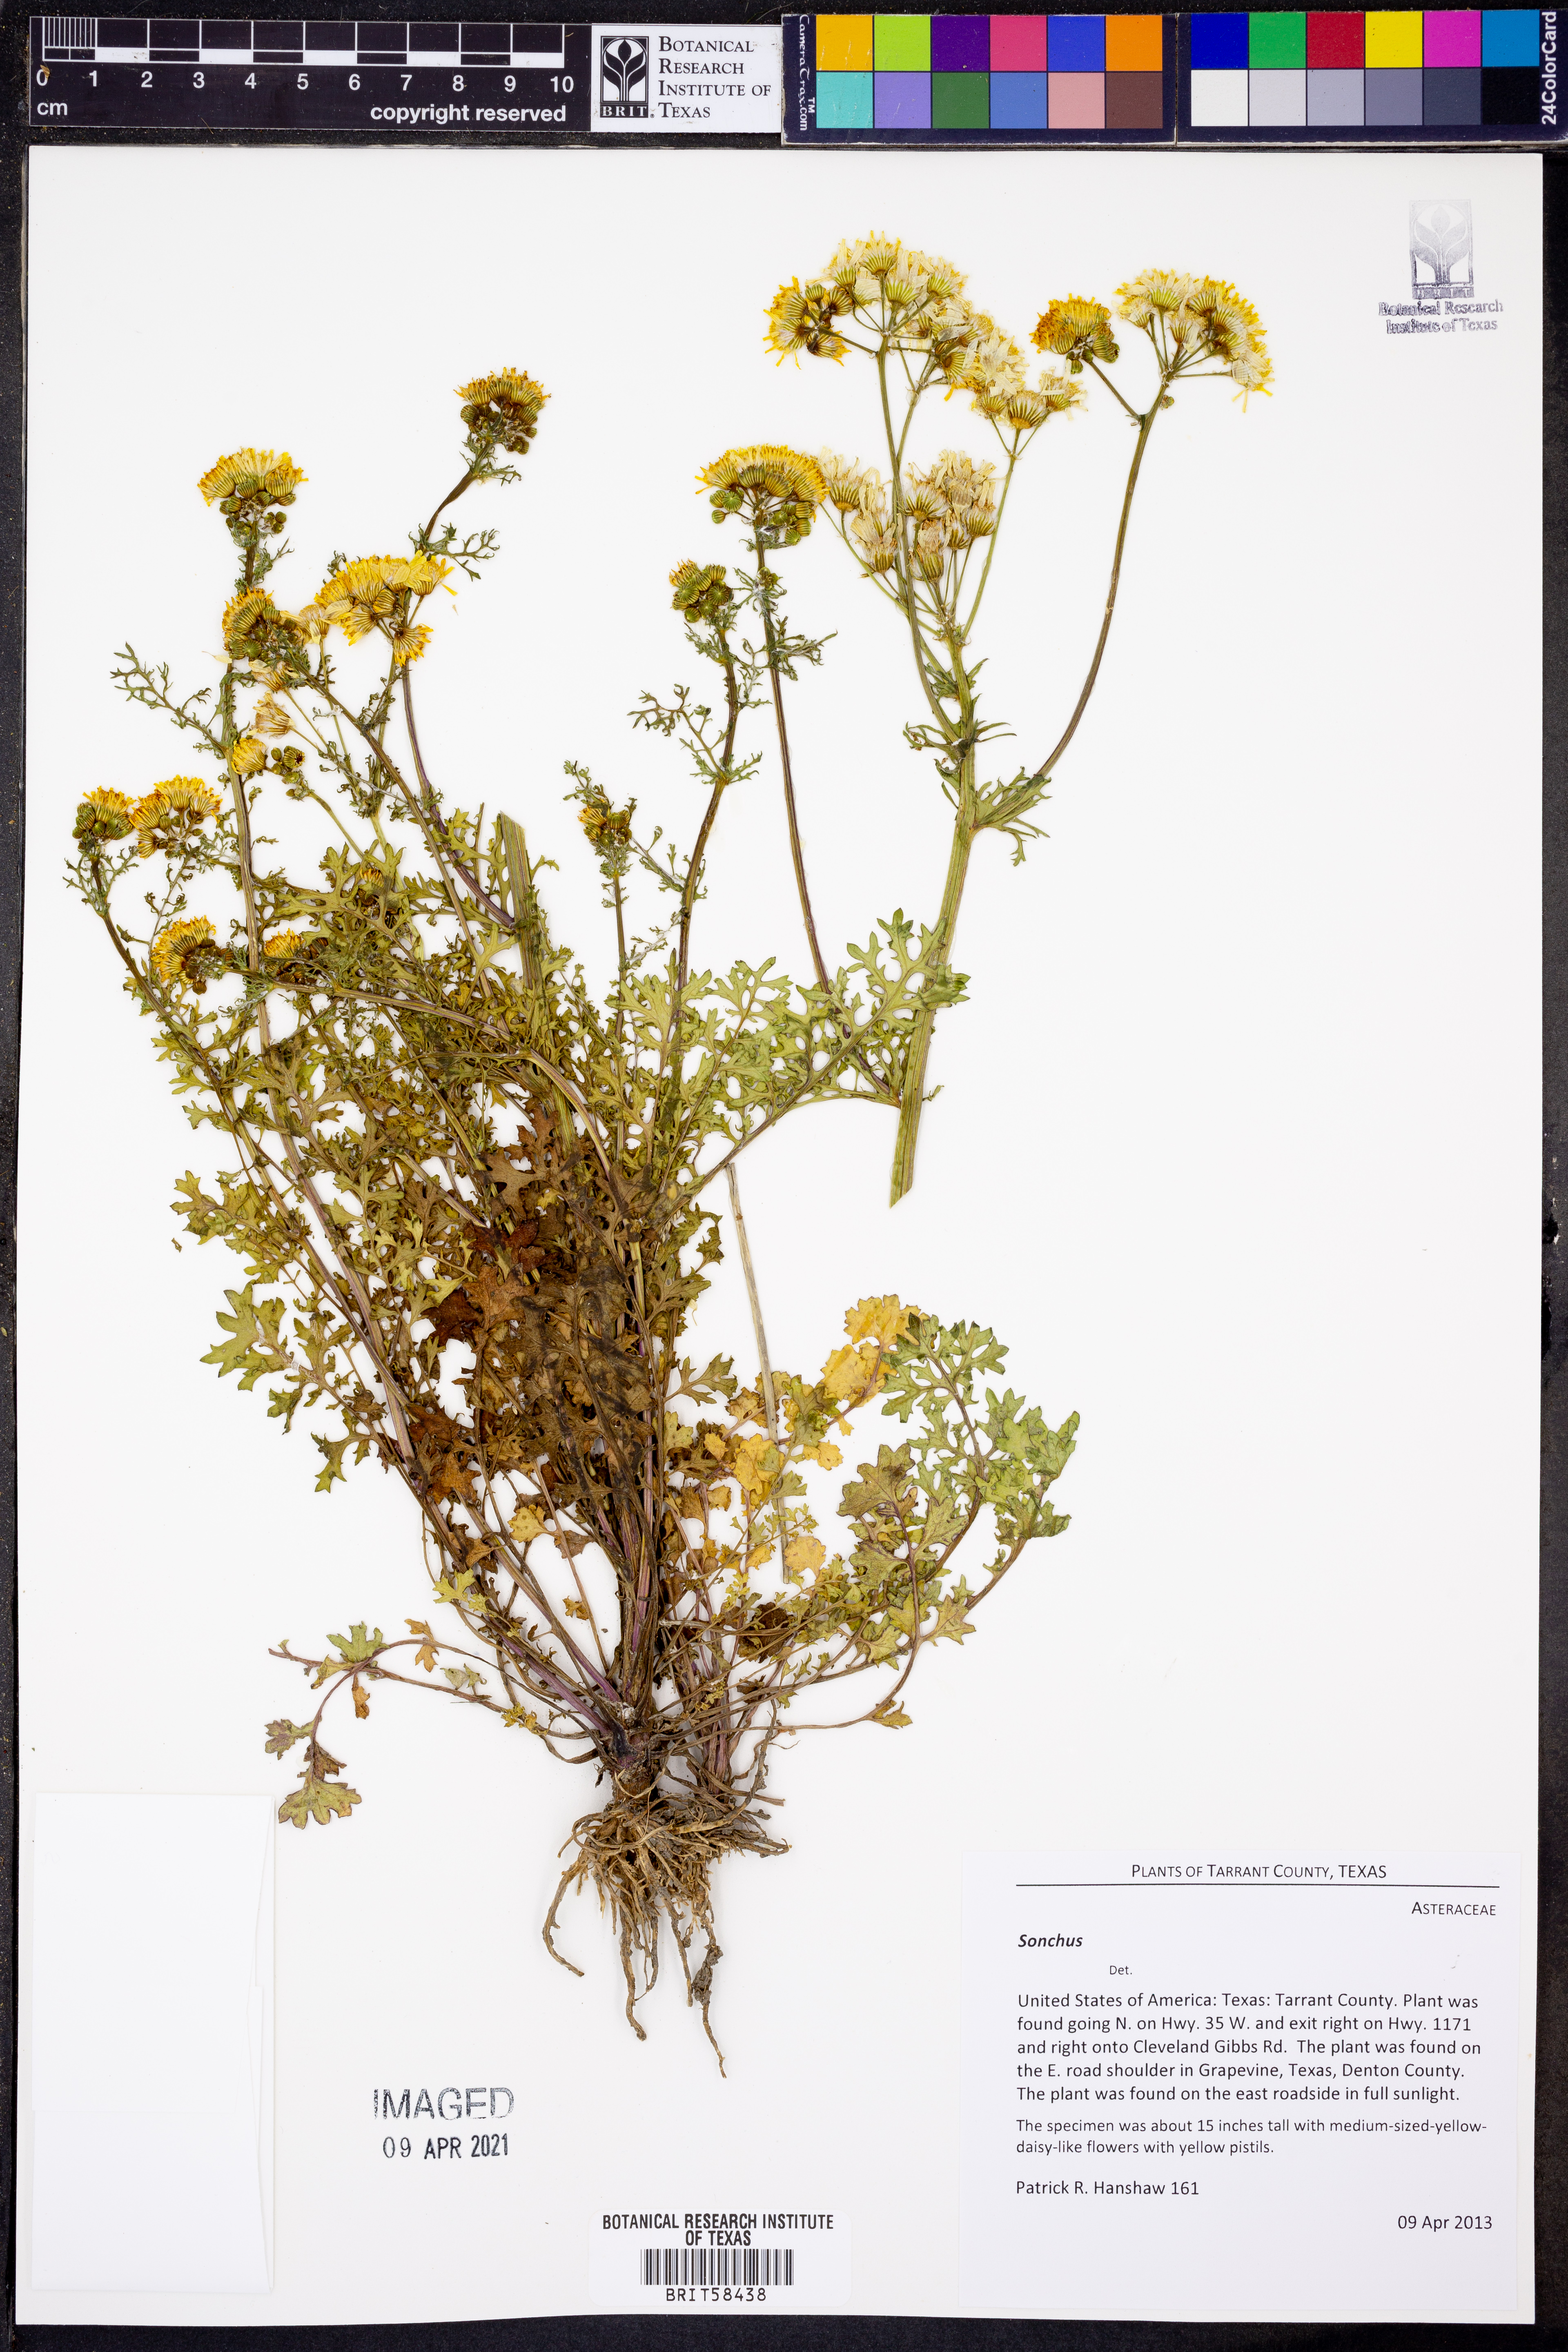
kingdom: Plantae
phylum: Tracheophyta
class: Magnoliopsida
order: Asterales
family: Asteraceae
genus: Sonchus
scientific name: Sonchus
